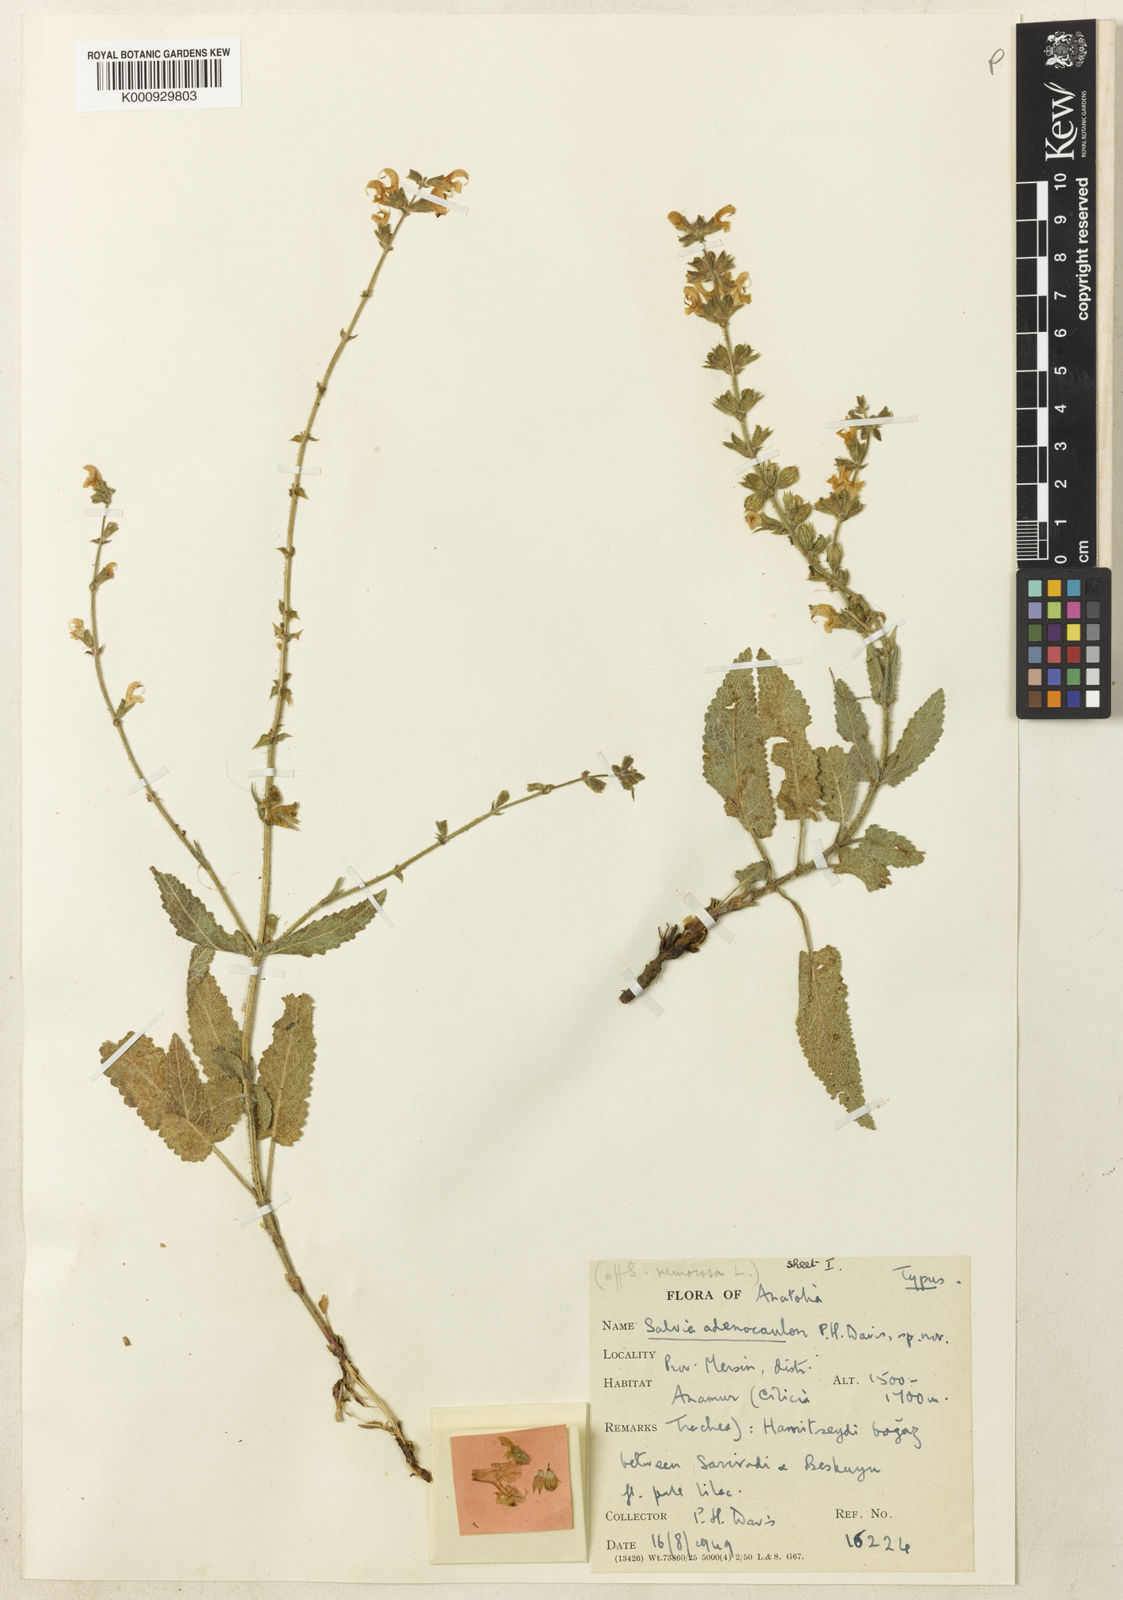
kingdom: Plantae
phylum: Tracheophyta
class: Magnoliopsida
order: Lamiales
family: Lamiaceae
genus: Salvia
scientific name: Salvia adenocaulon
